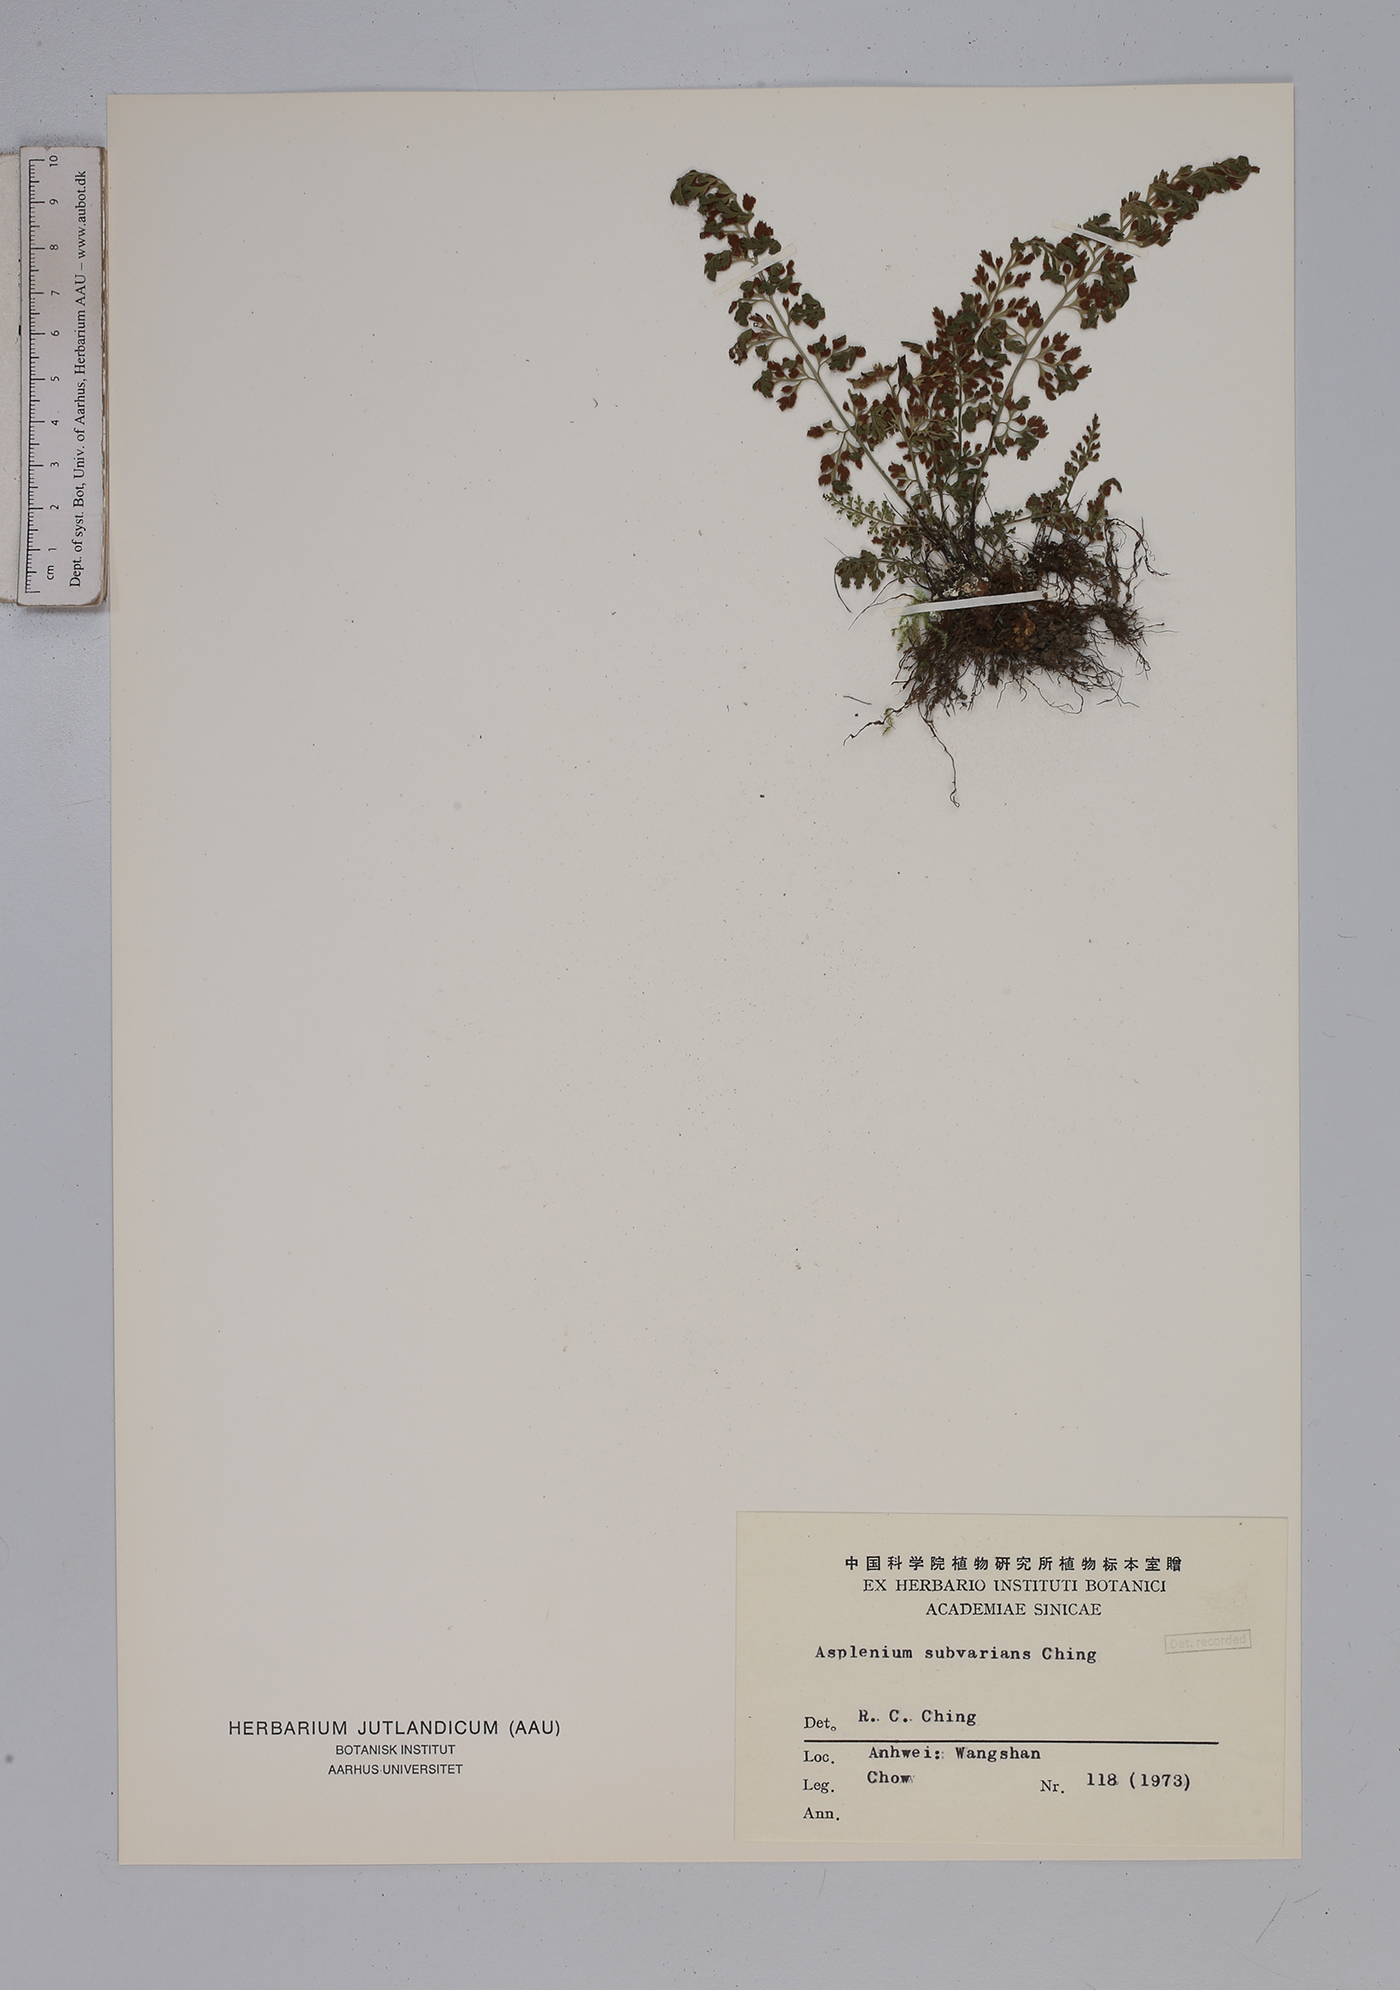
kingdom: Plantae
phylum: Tracheophyta
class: Polypodiopsida
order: Polypodiales
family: Aspleniaceae
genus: Asplenium
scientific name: Asplenium laciniatum
